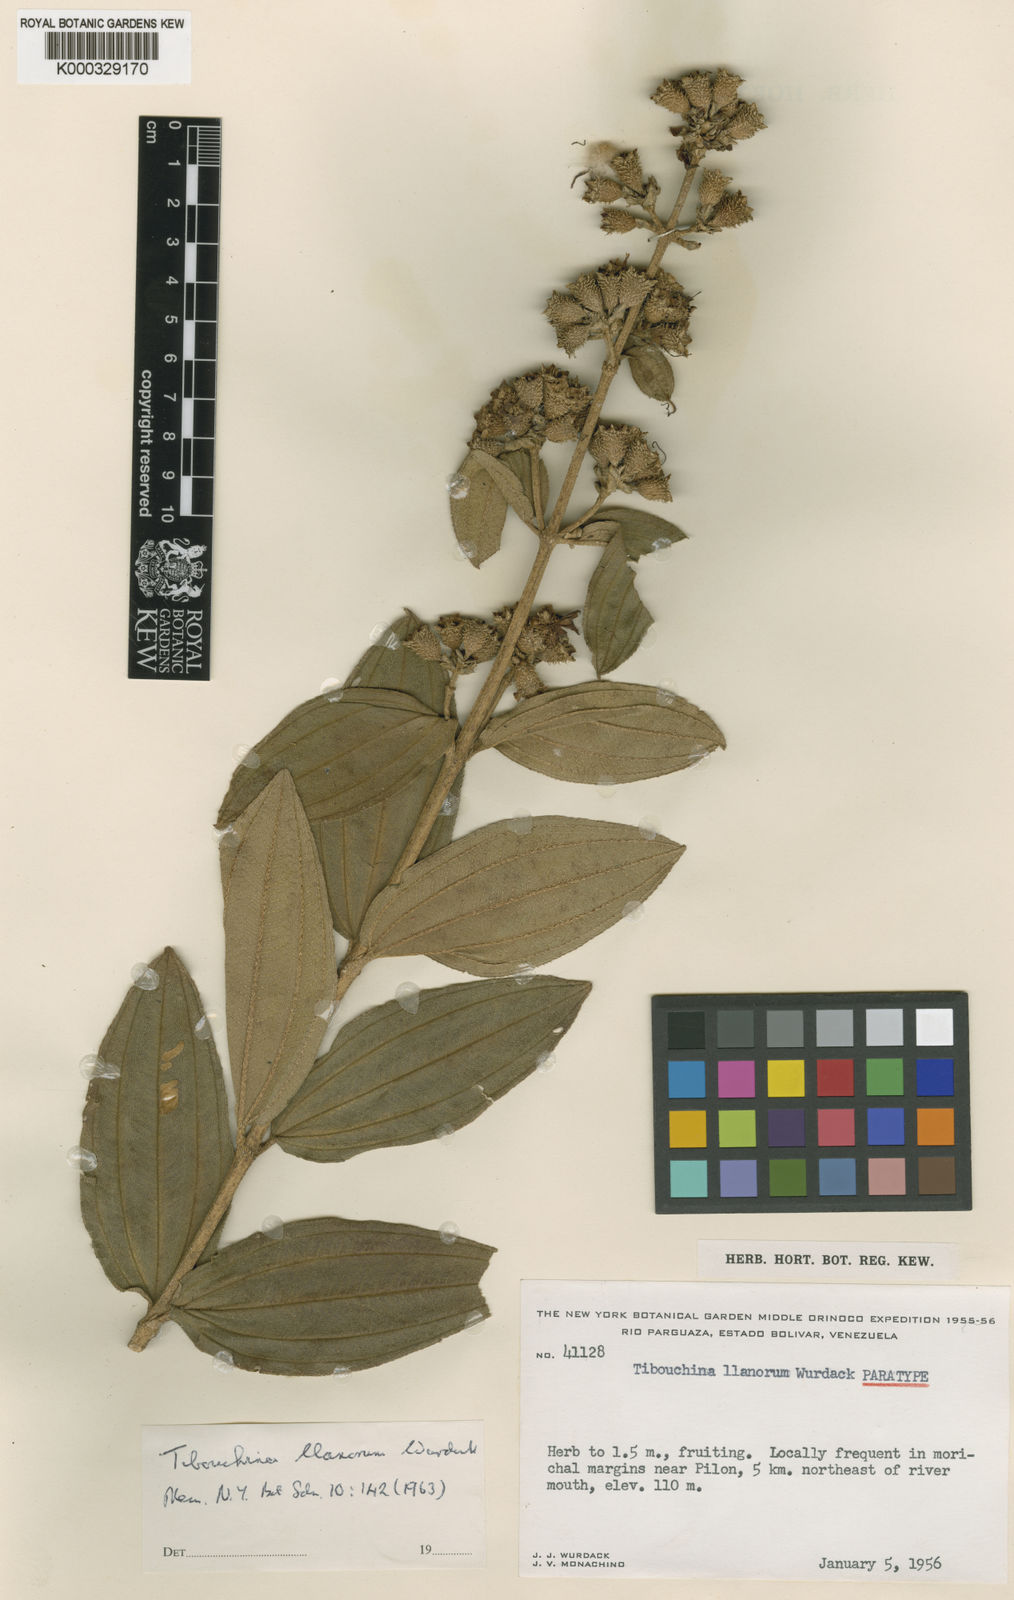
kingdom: Plantae
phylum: Tracheophyta
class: Magnoliopsida
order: Myrtales
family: Melastomataceae
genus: Tibouchina
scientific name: Tibouchina llanorum
